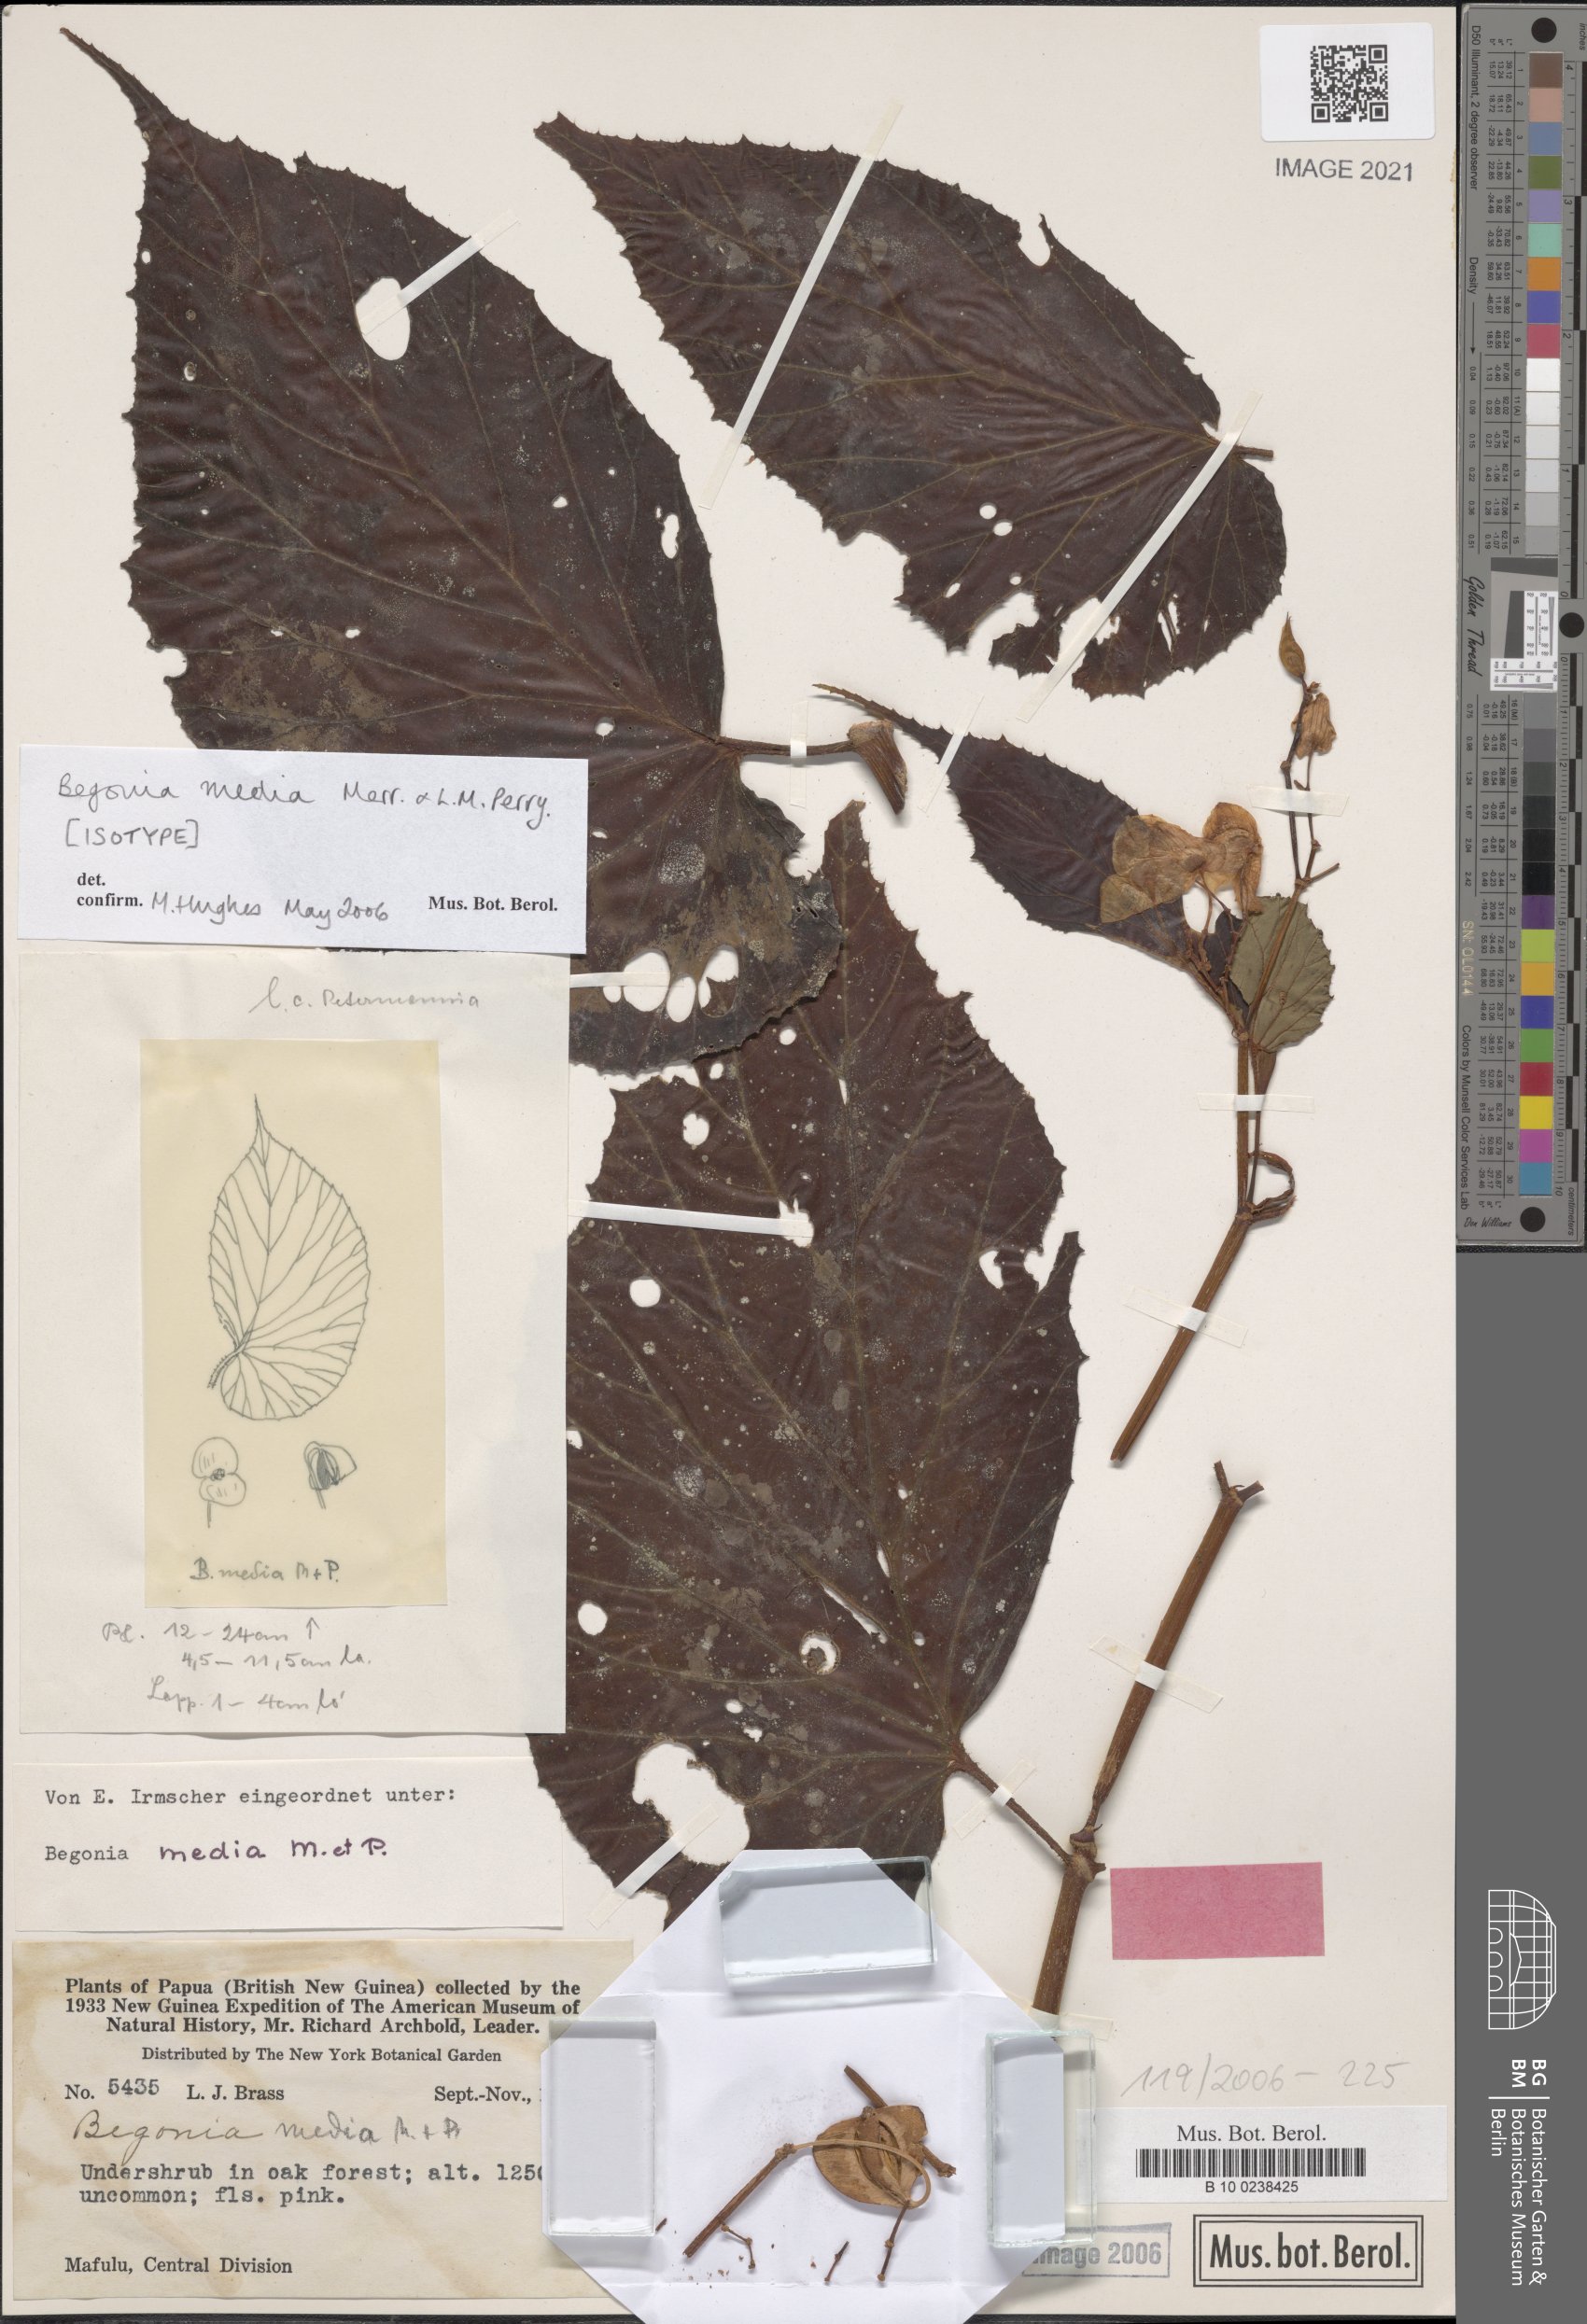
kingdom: Plantae
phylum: Tracheophyta
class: Magnoliopsida
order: Cucurbitales
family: Begoniaceae
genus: Begonia
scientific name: Begonia media
